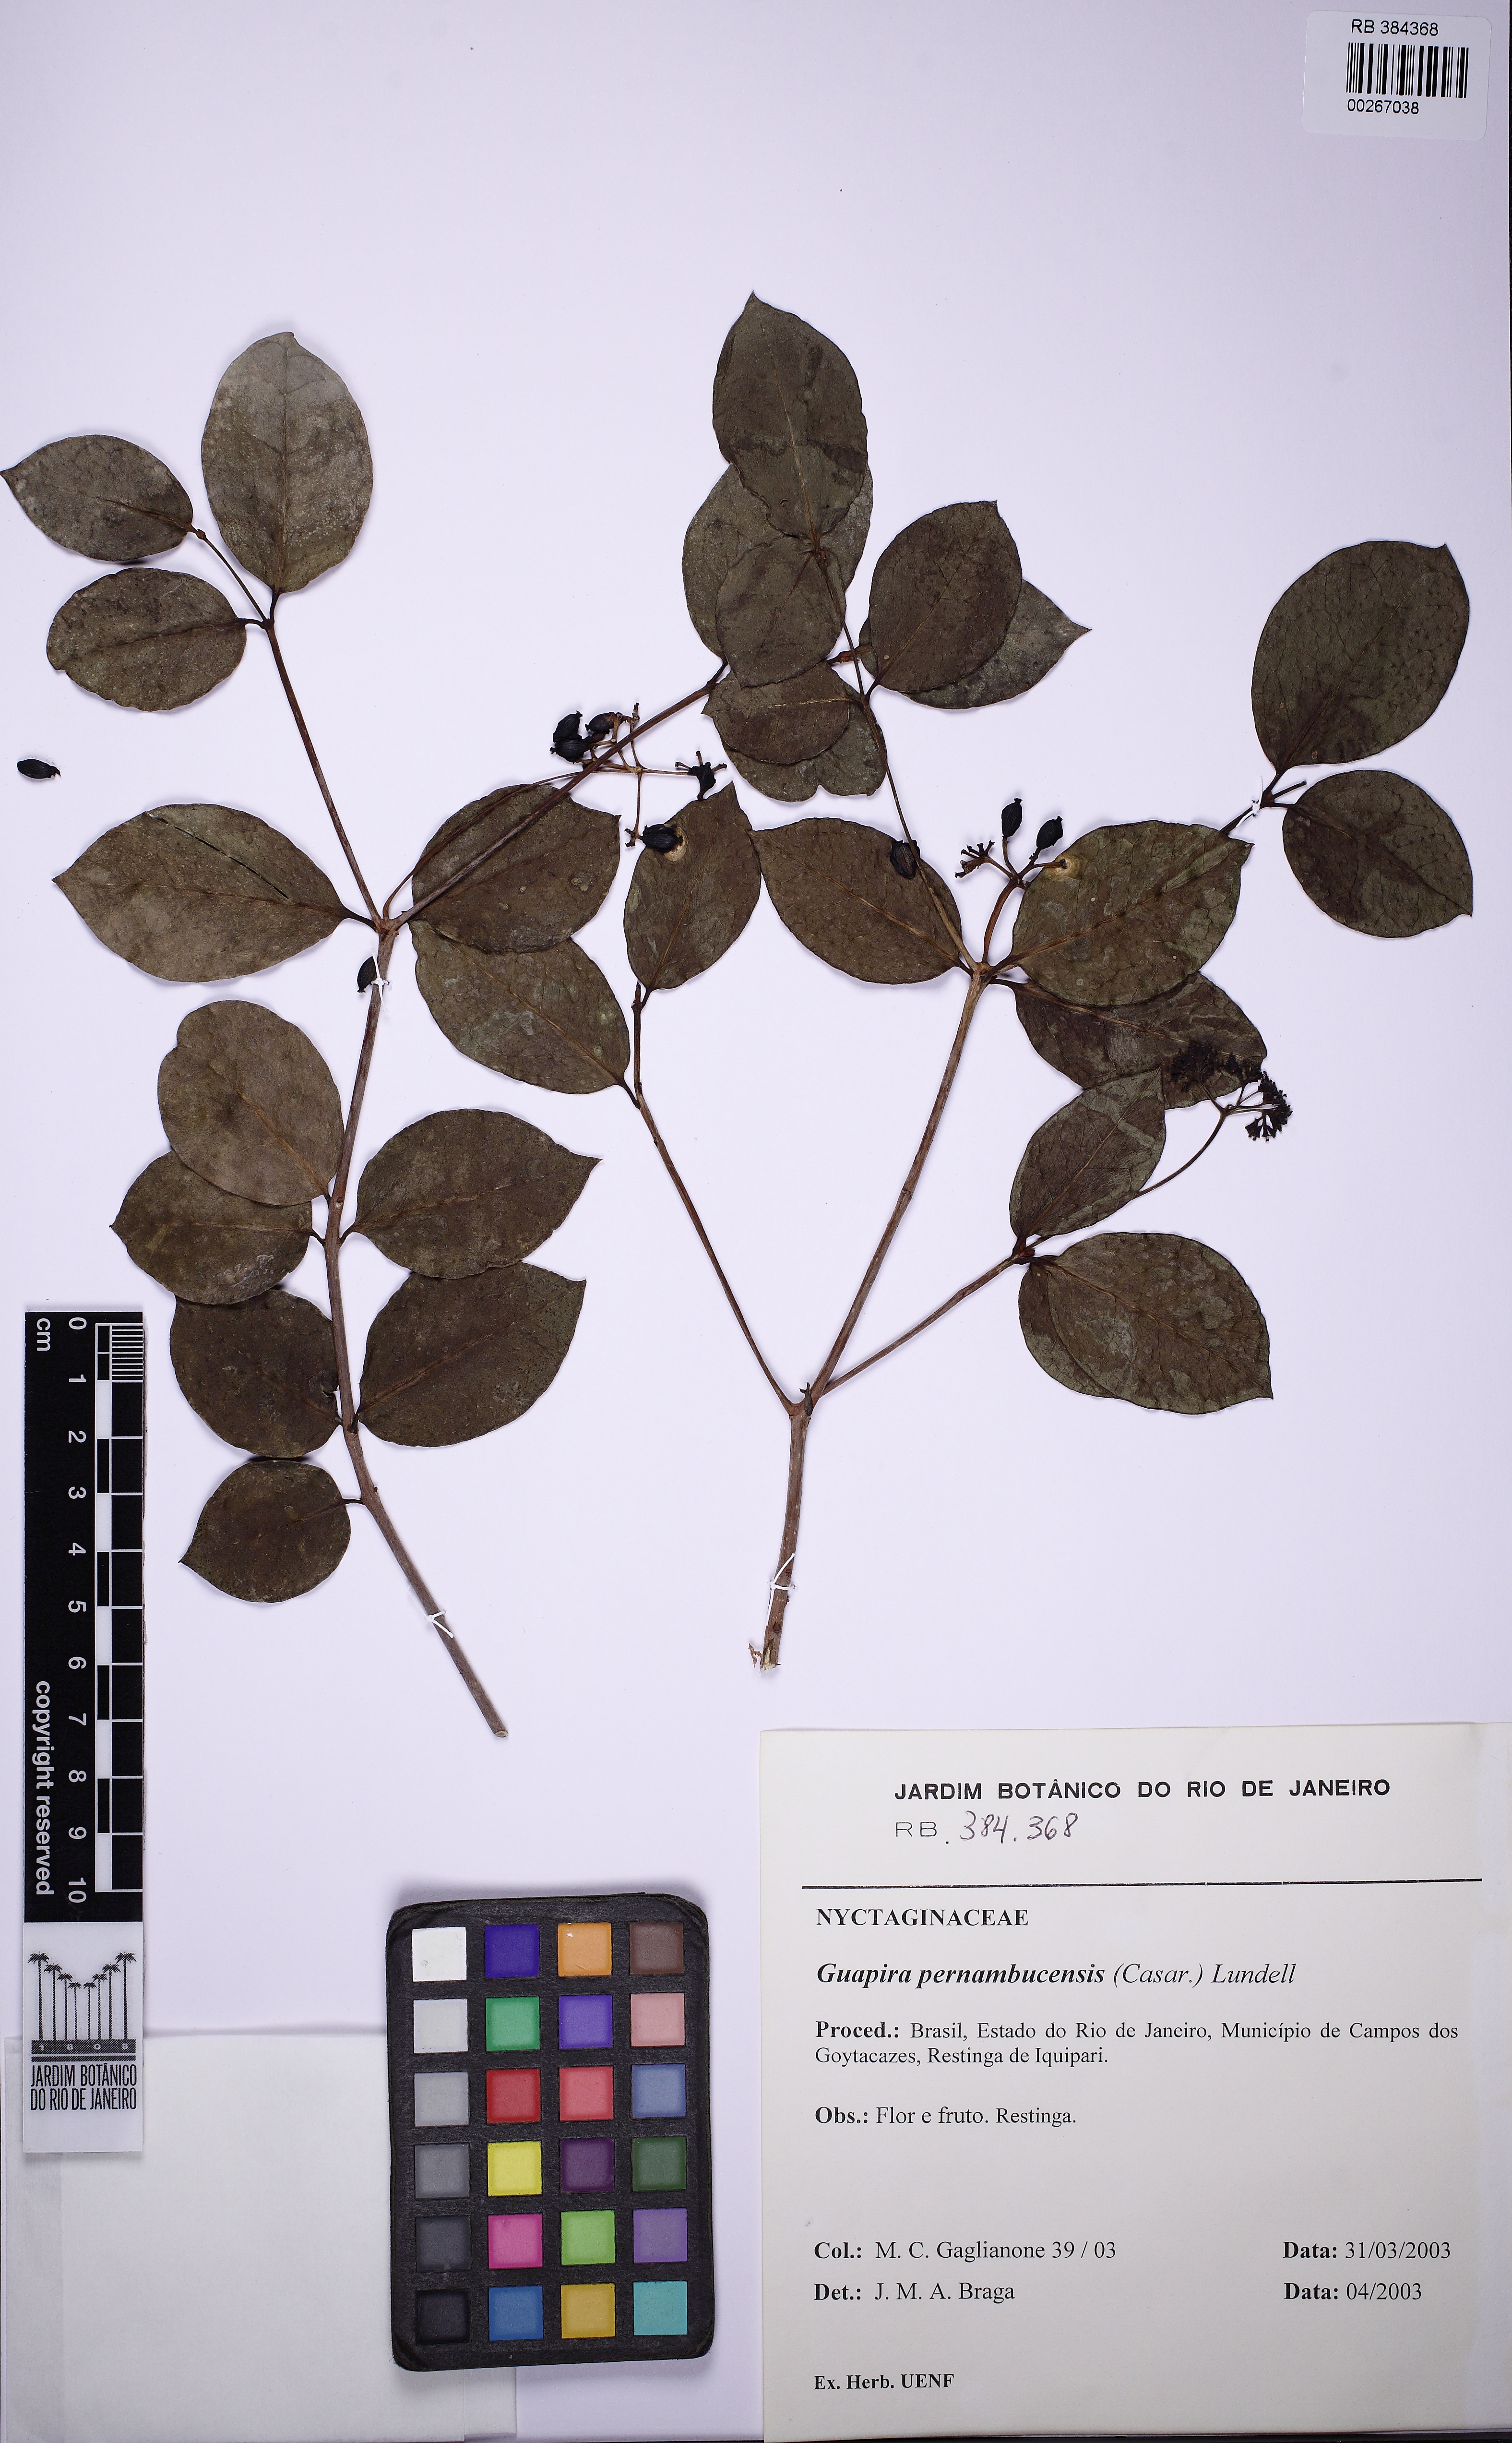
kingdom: Plantae
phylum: Tracheophyta
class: Magnoliopsida
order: Caryophyllales
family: Nyctaginaceae
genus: Guapira
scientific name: Guapira pernambucensis
